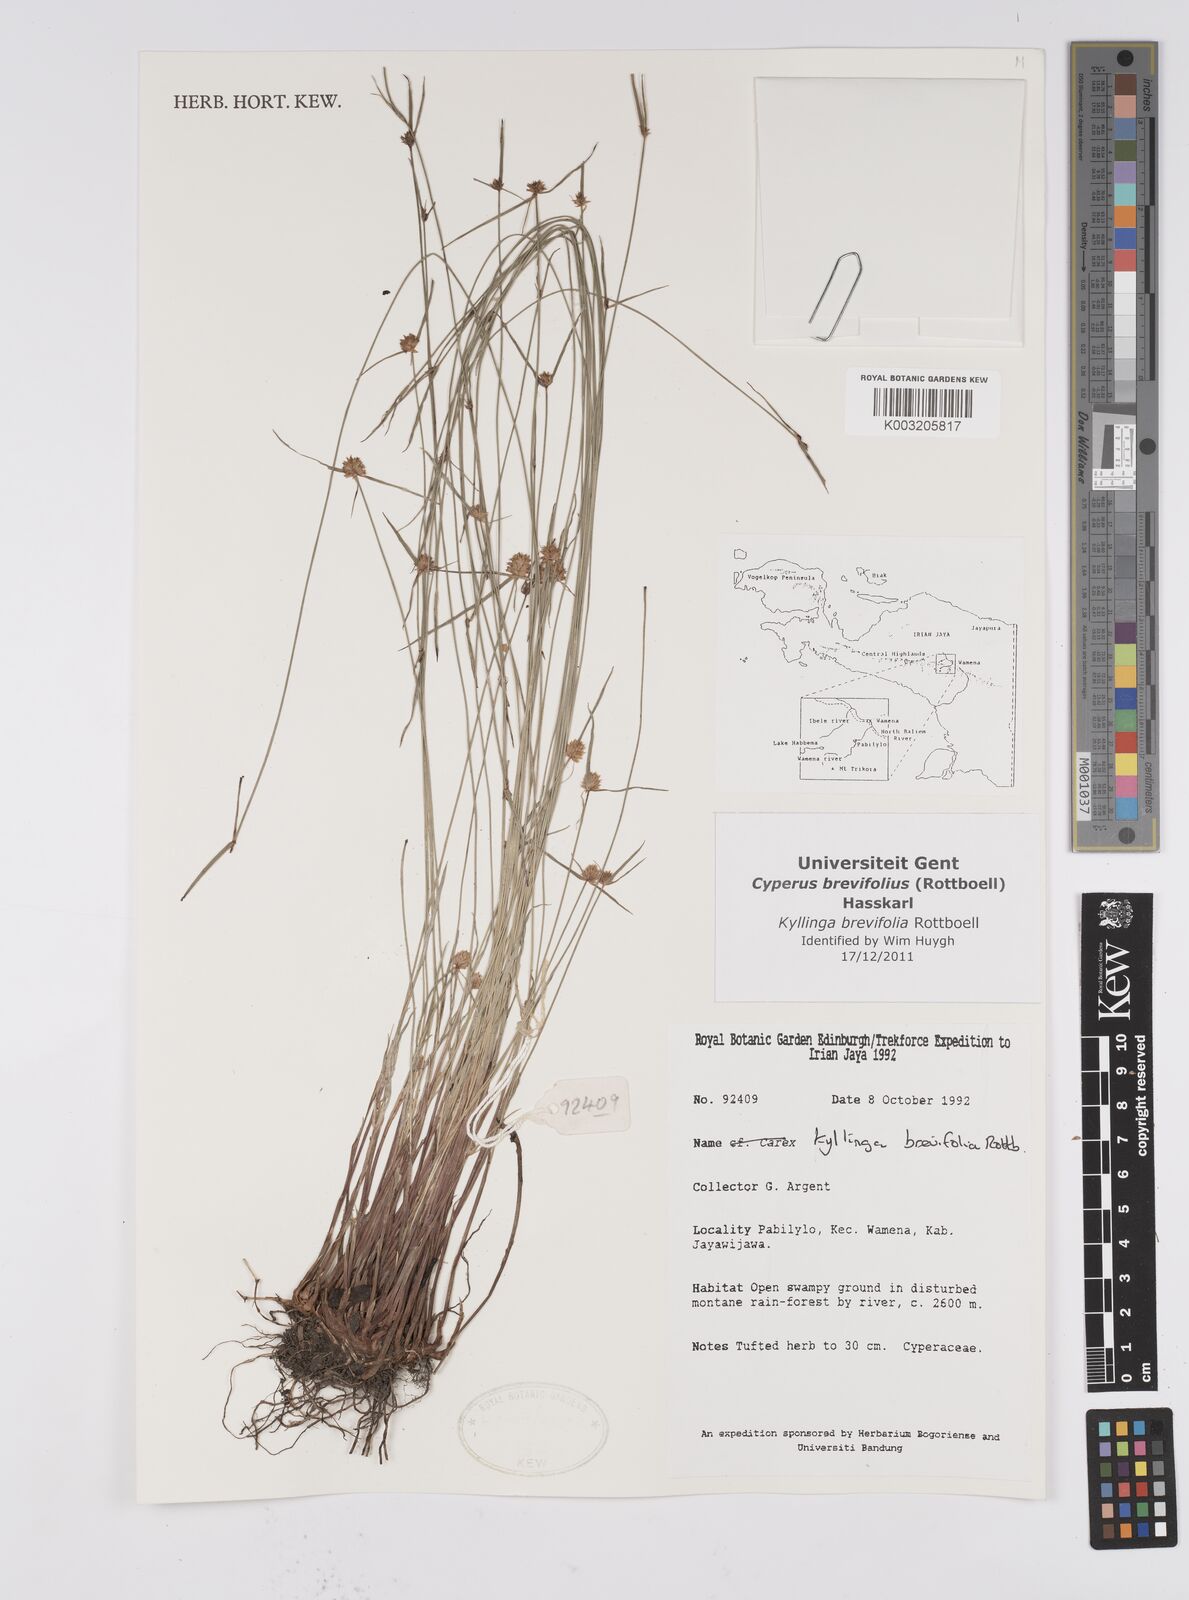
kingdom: Plantae
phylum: Tracheophyta
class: Liliopsida
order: Poales
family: Cyperaceae
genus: Cyperus
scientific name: Cyperus brevifolius
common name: Globe kyllinga
